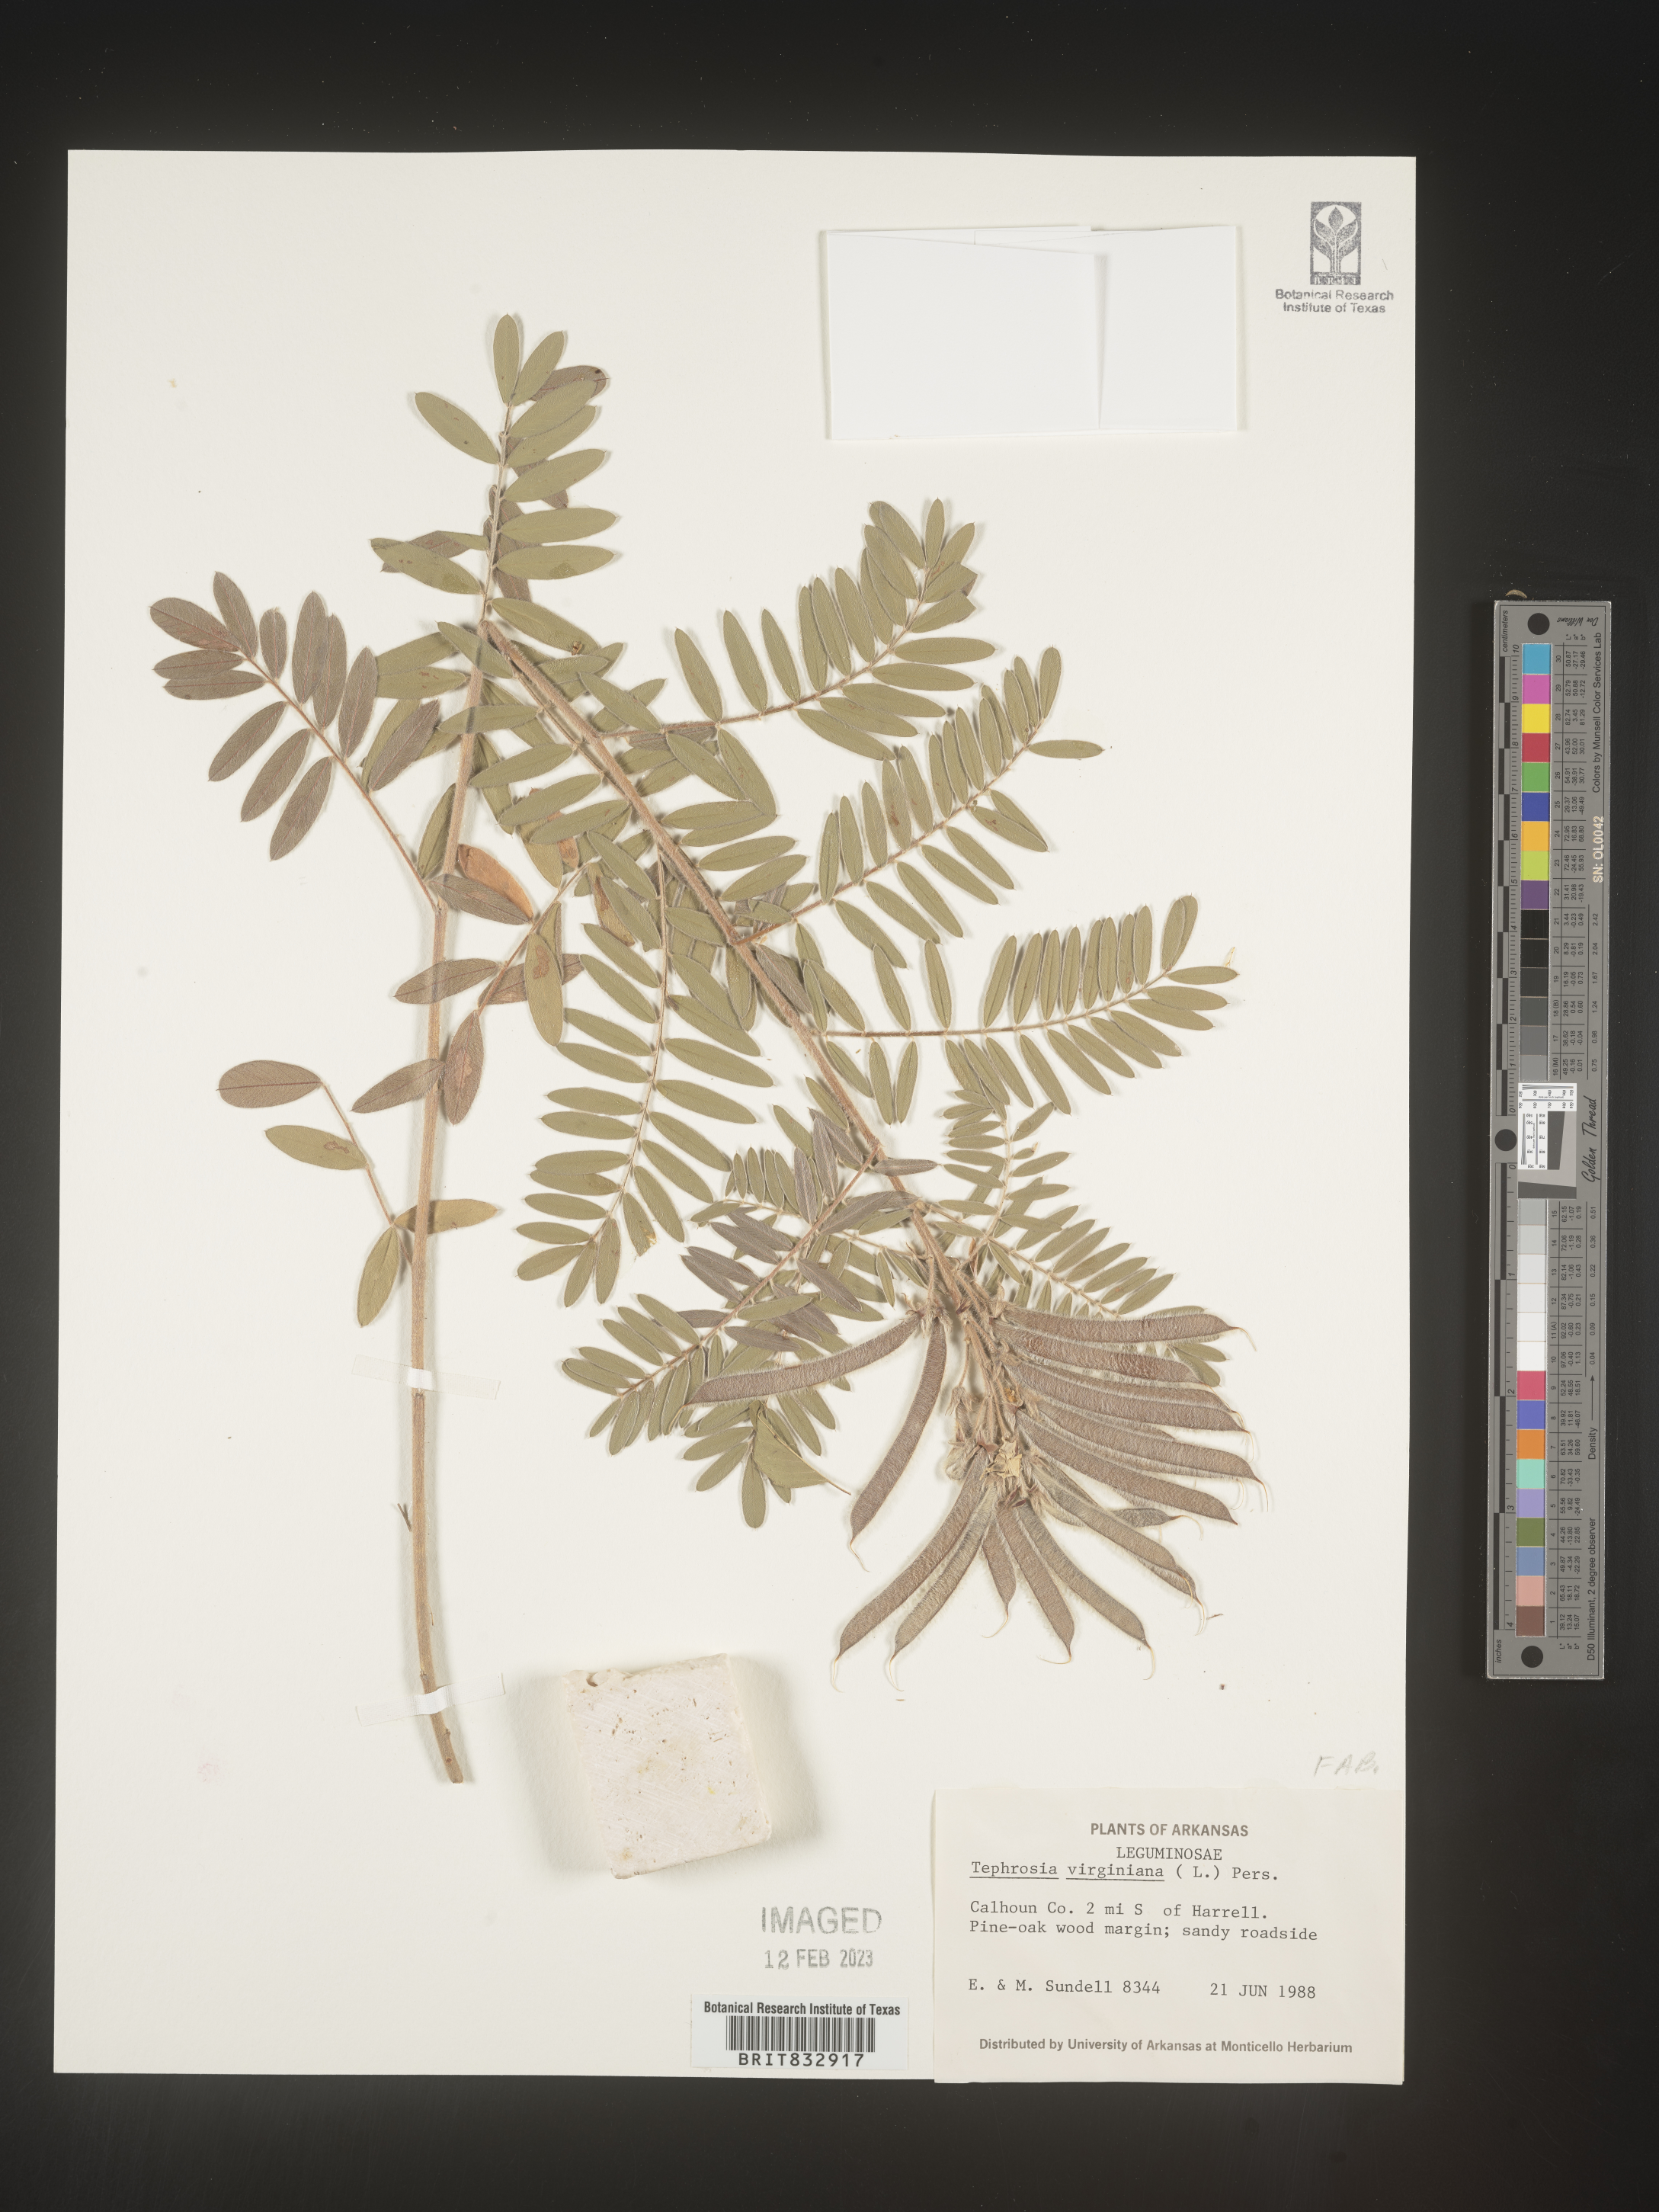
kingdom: Plantae
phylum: Tracheophyta
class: Magnoliopsida
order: Fabales
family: Fabaceae
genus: Tephrosia
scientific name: Tephrosia virginiana
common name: Rabbit-pea
